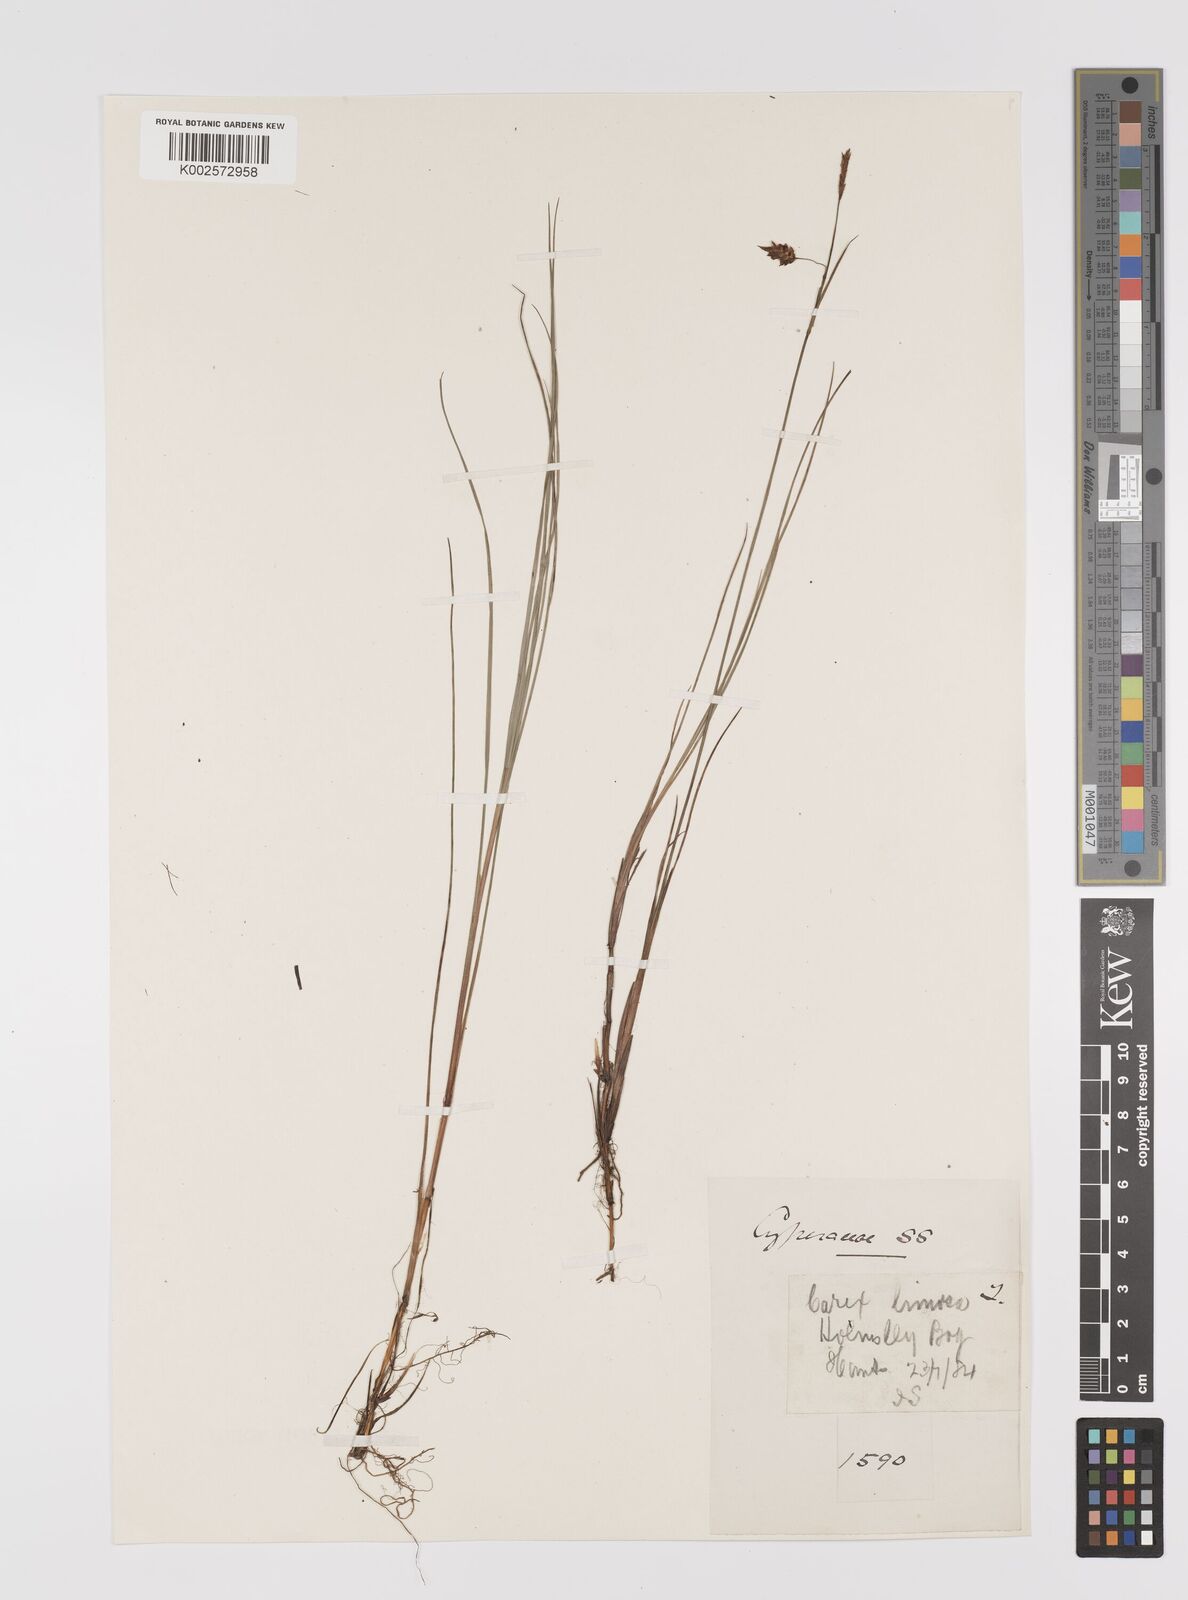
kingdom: Plantae
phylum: Tracheophyta
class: Liliopsida
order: Poales
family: Cyperaceae
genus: Carex
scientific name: Carex limosa
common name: Bog sedge
